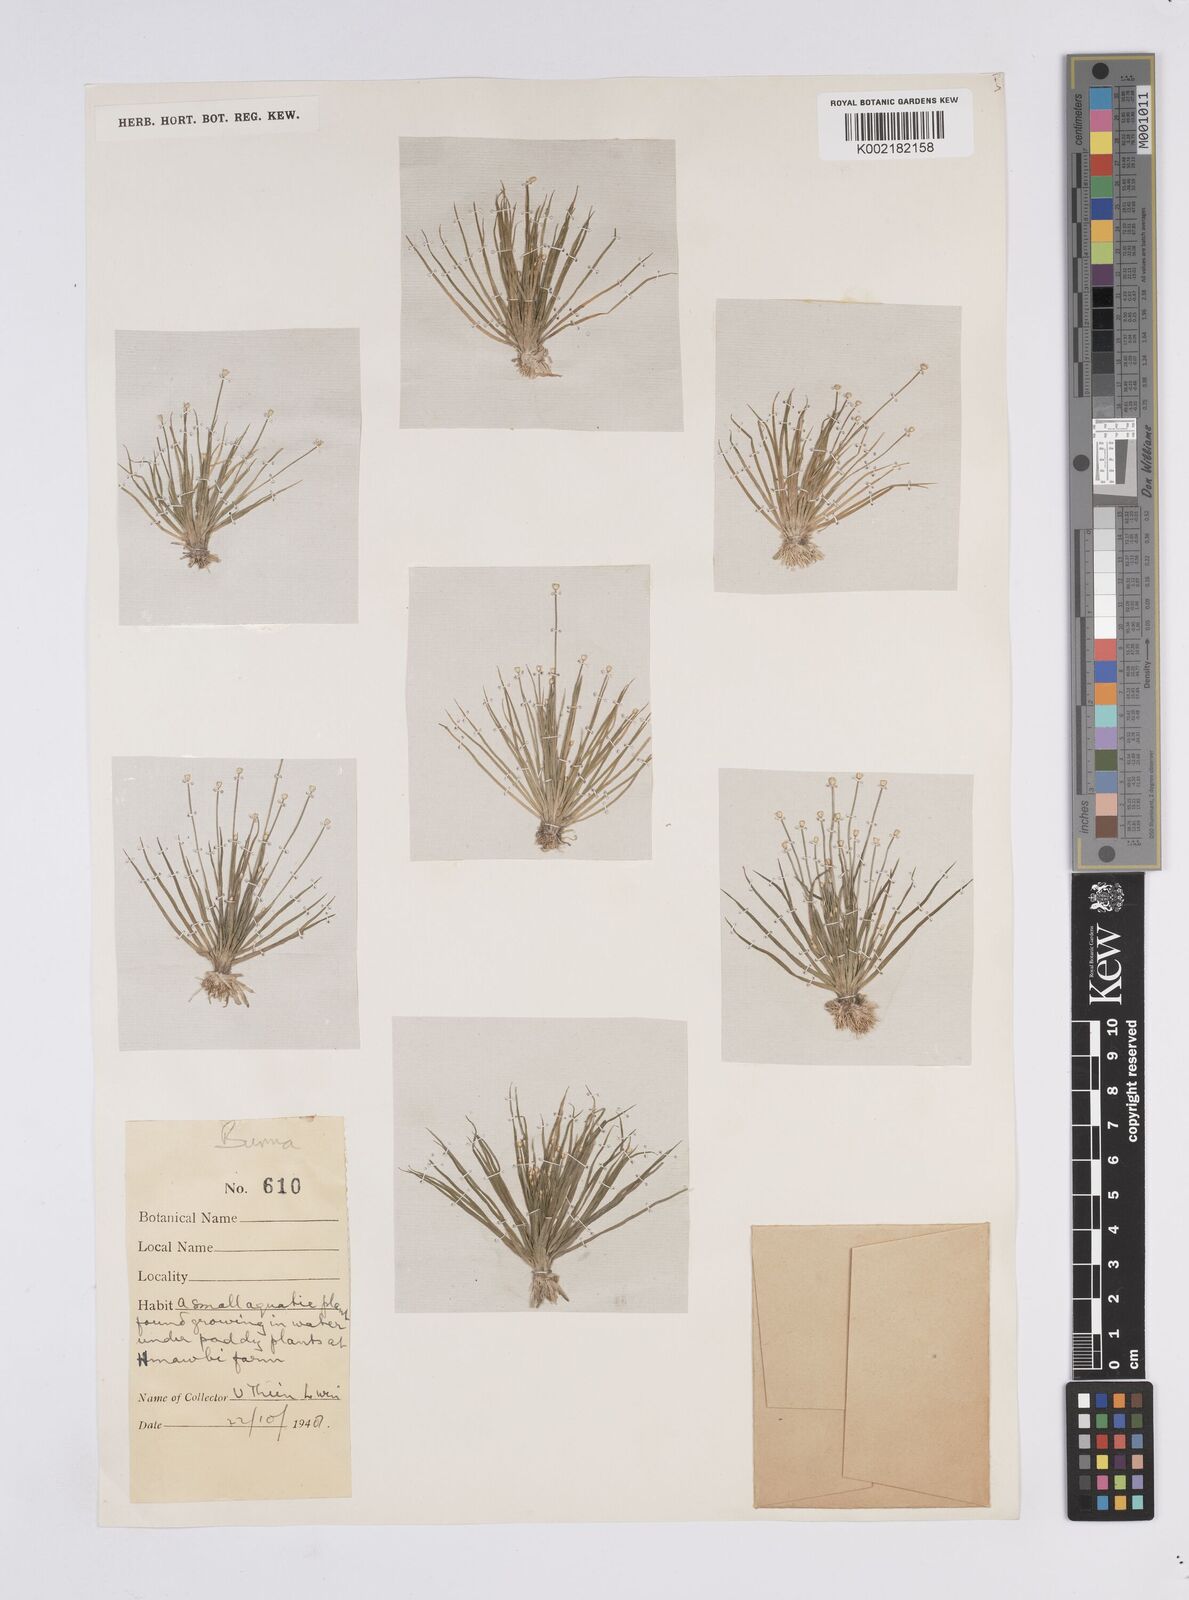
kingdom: Plantae
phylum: Tracheophyta
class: Liliopsida
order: Poales
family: Eriocaulaceae
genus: Eriocaulon
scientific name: Eriocaulon
